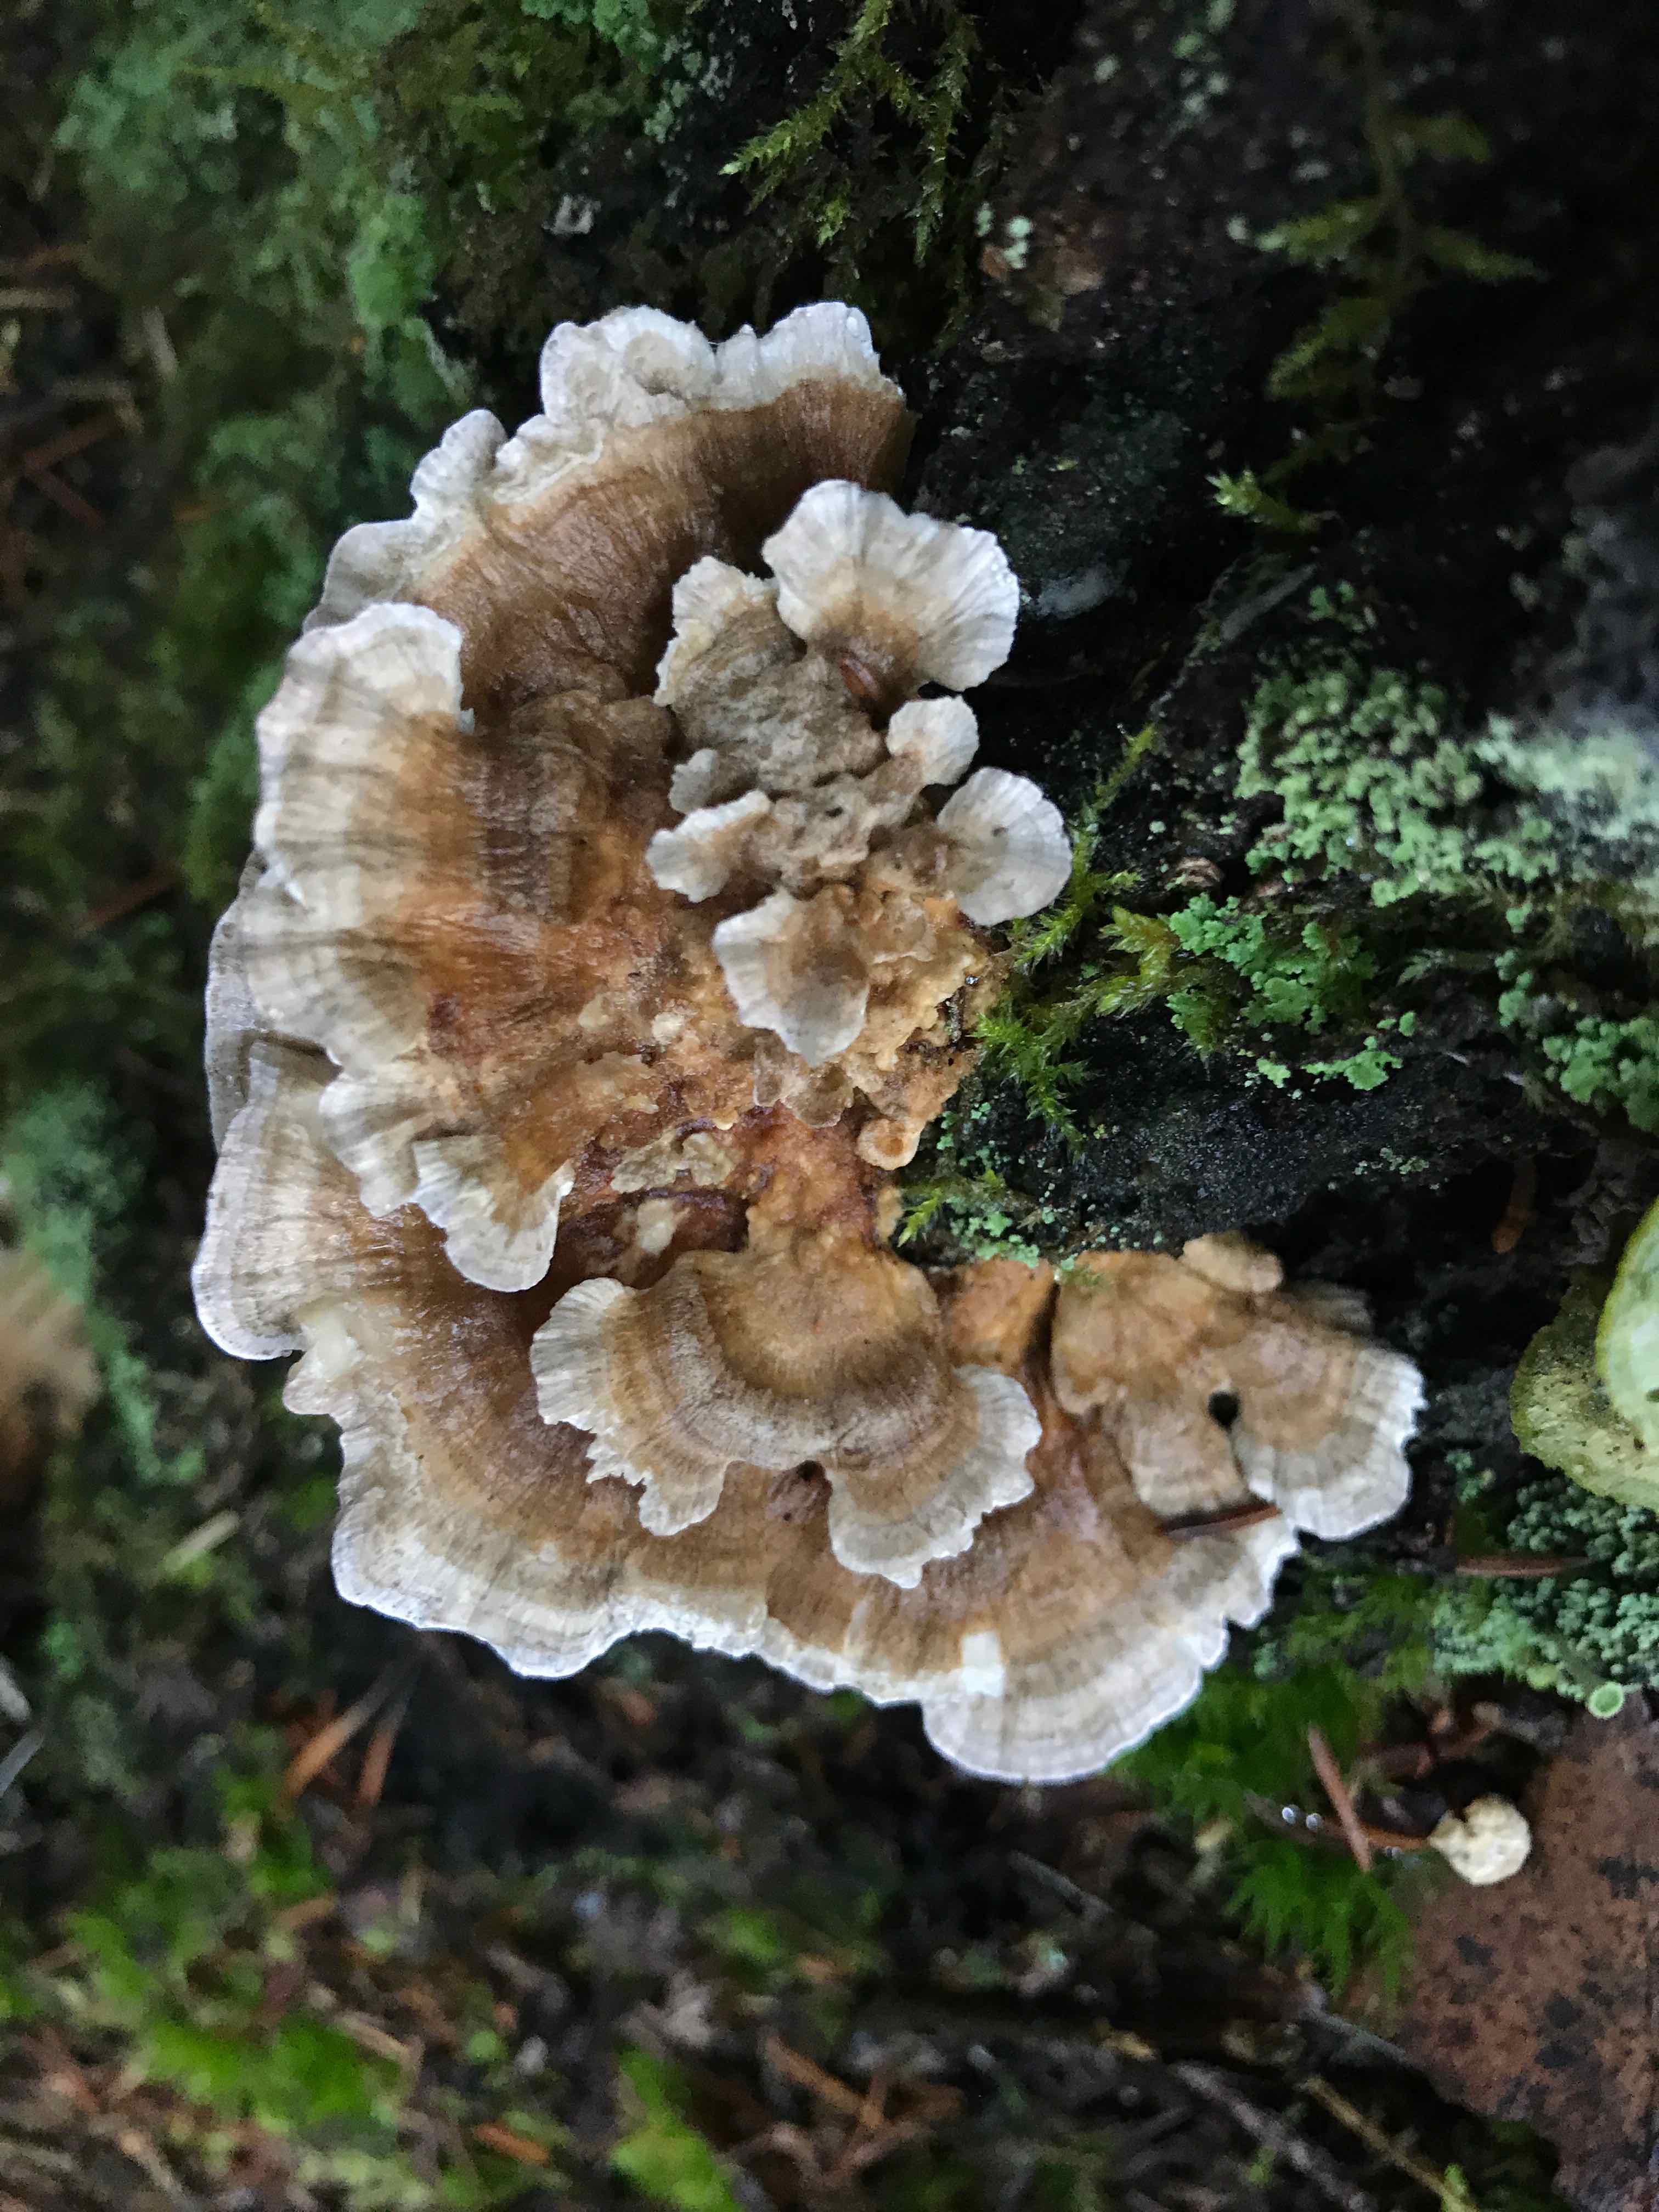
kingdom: Fungi
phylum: Basidiomycota
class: Agaricomycetes
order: Polyporales
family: Polyporaceae
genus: Trametes
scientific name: Trametes
